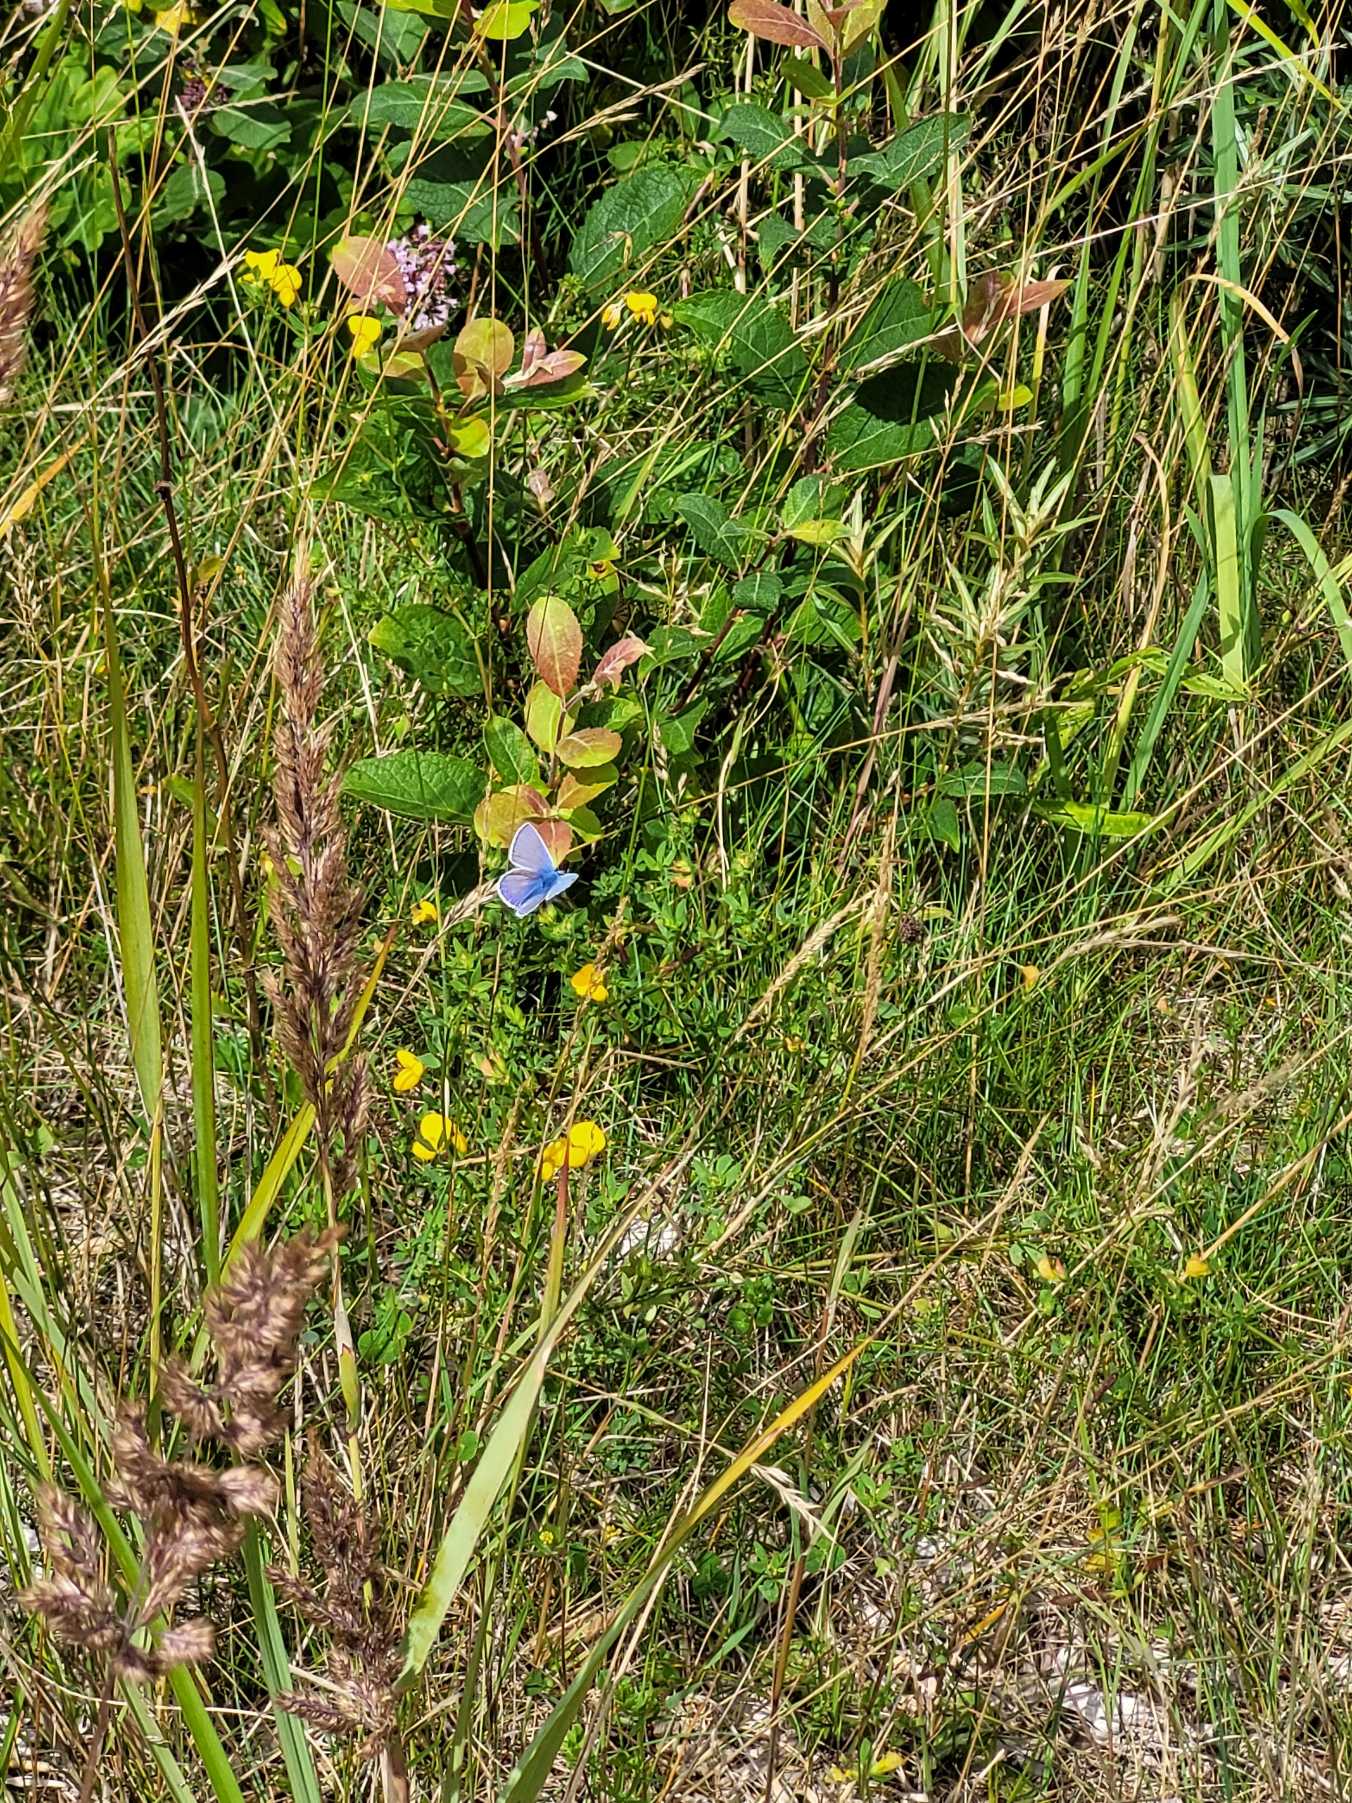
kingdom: Animalia
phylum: Arthropoda
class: Insecta
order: Lepidoptera
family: Lycaenidae
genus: Polyommatus
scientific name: Polyommatus icarus
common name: Almindelig blåfugl
